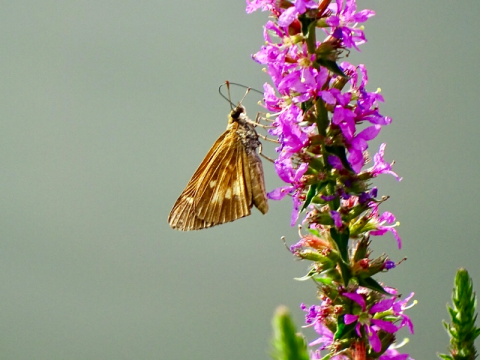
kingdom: Animalia
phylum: Arthropoda
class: Insecta
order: Lepidoptera
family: Hesperiidae
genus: Poanes
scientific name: Poanes viator
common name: Broad-winged Skipper
